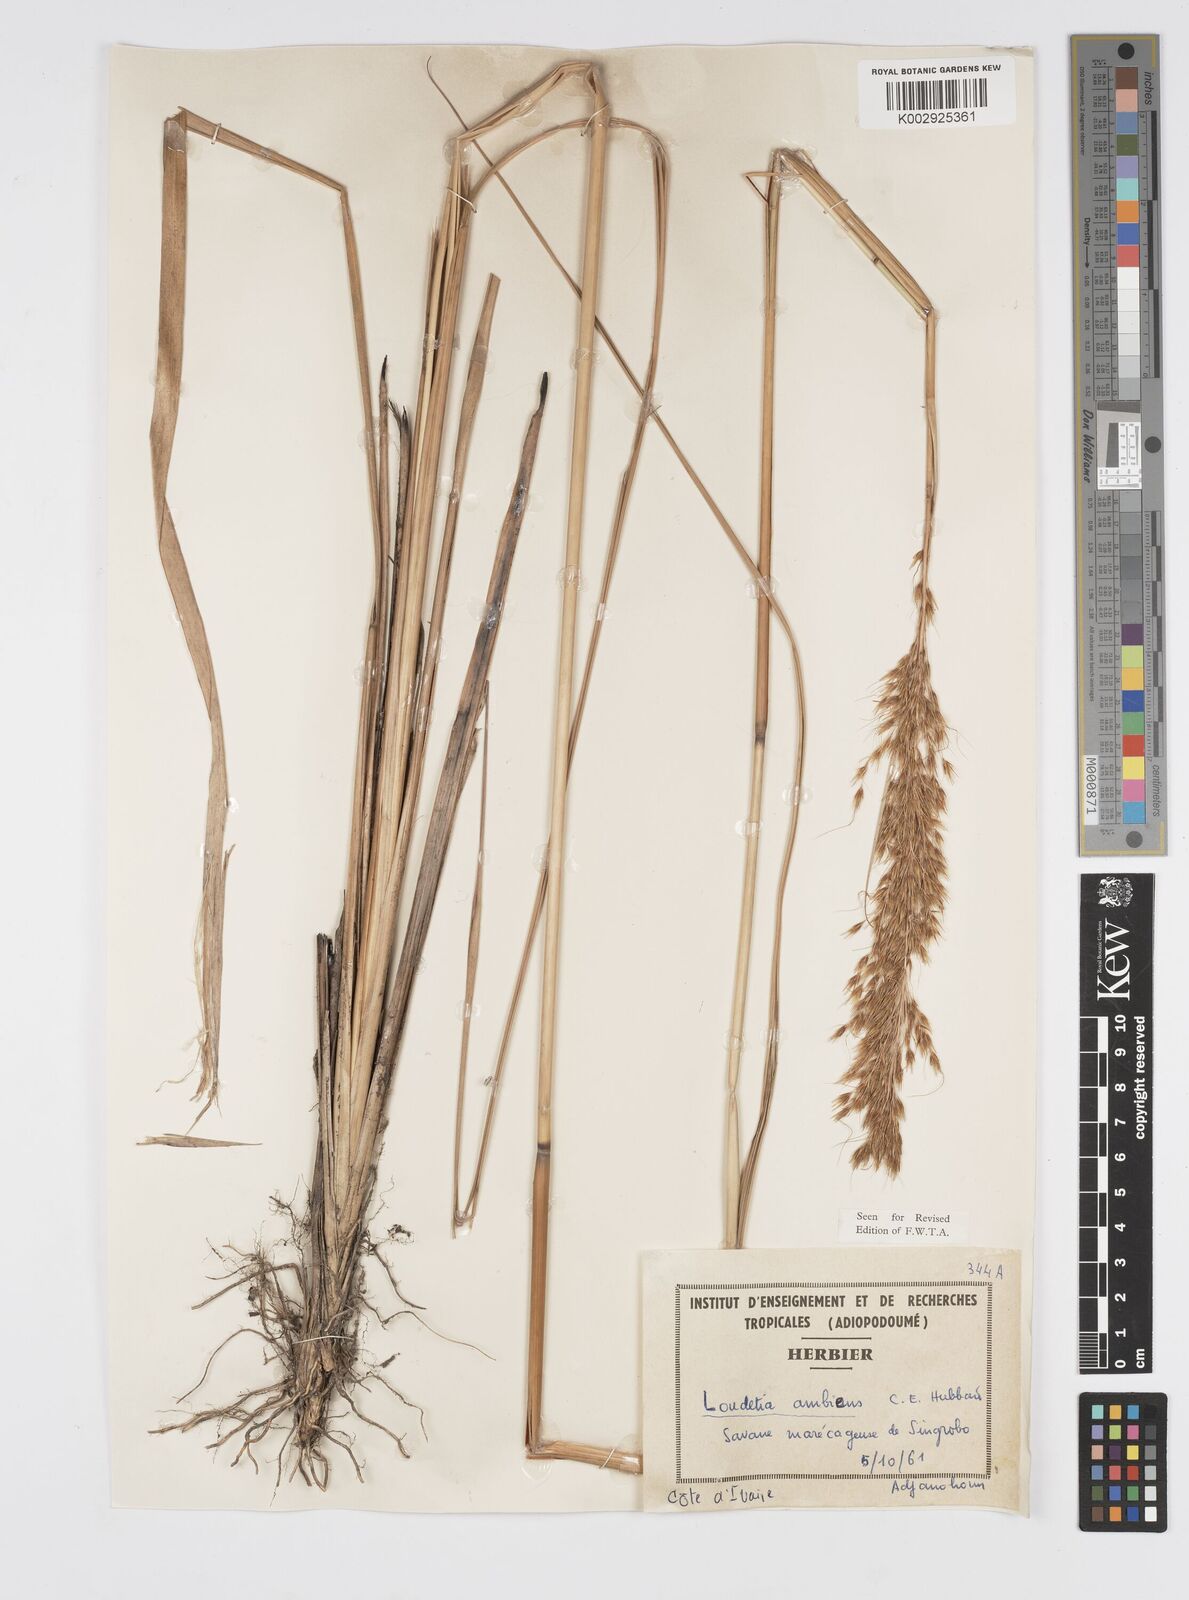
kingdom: Plantae
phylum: Tracheophyta
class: Liliopsida
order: Poales
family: Poaceae
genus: Loudetiopsis
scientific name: Loudetiopsis ambiens
